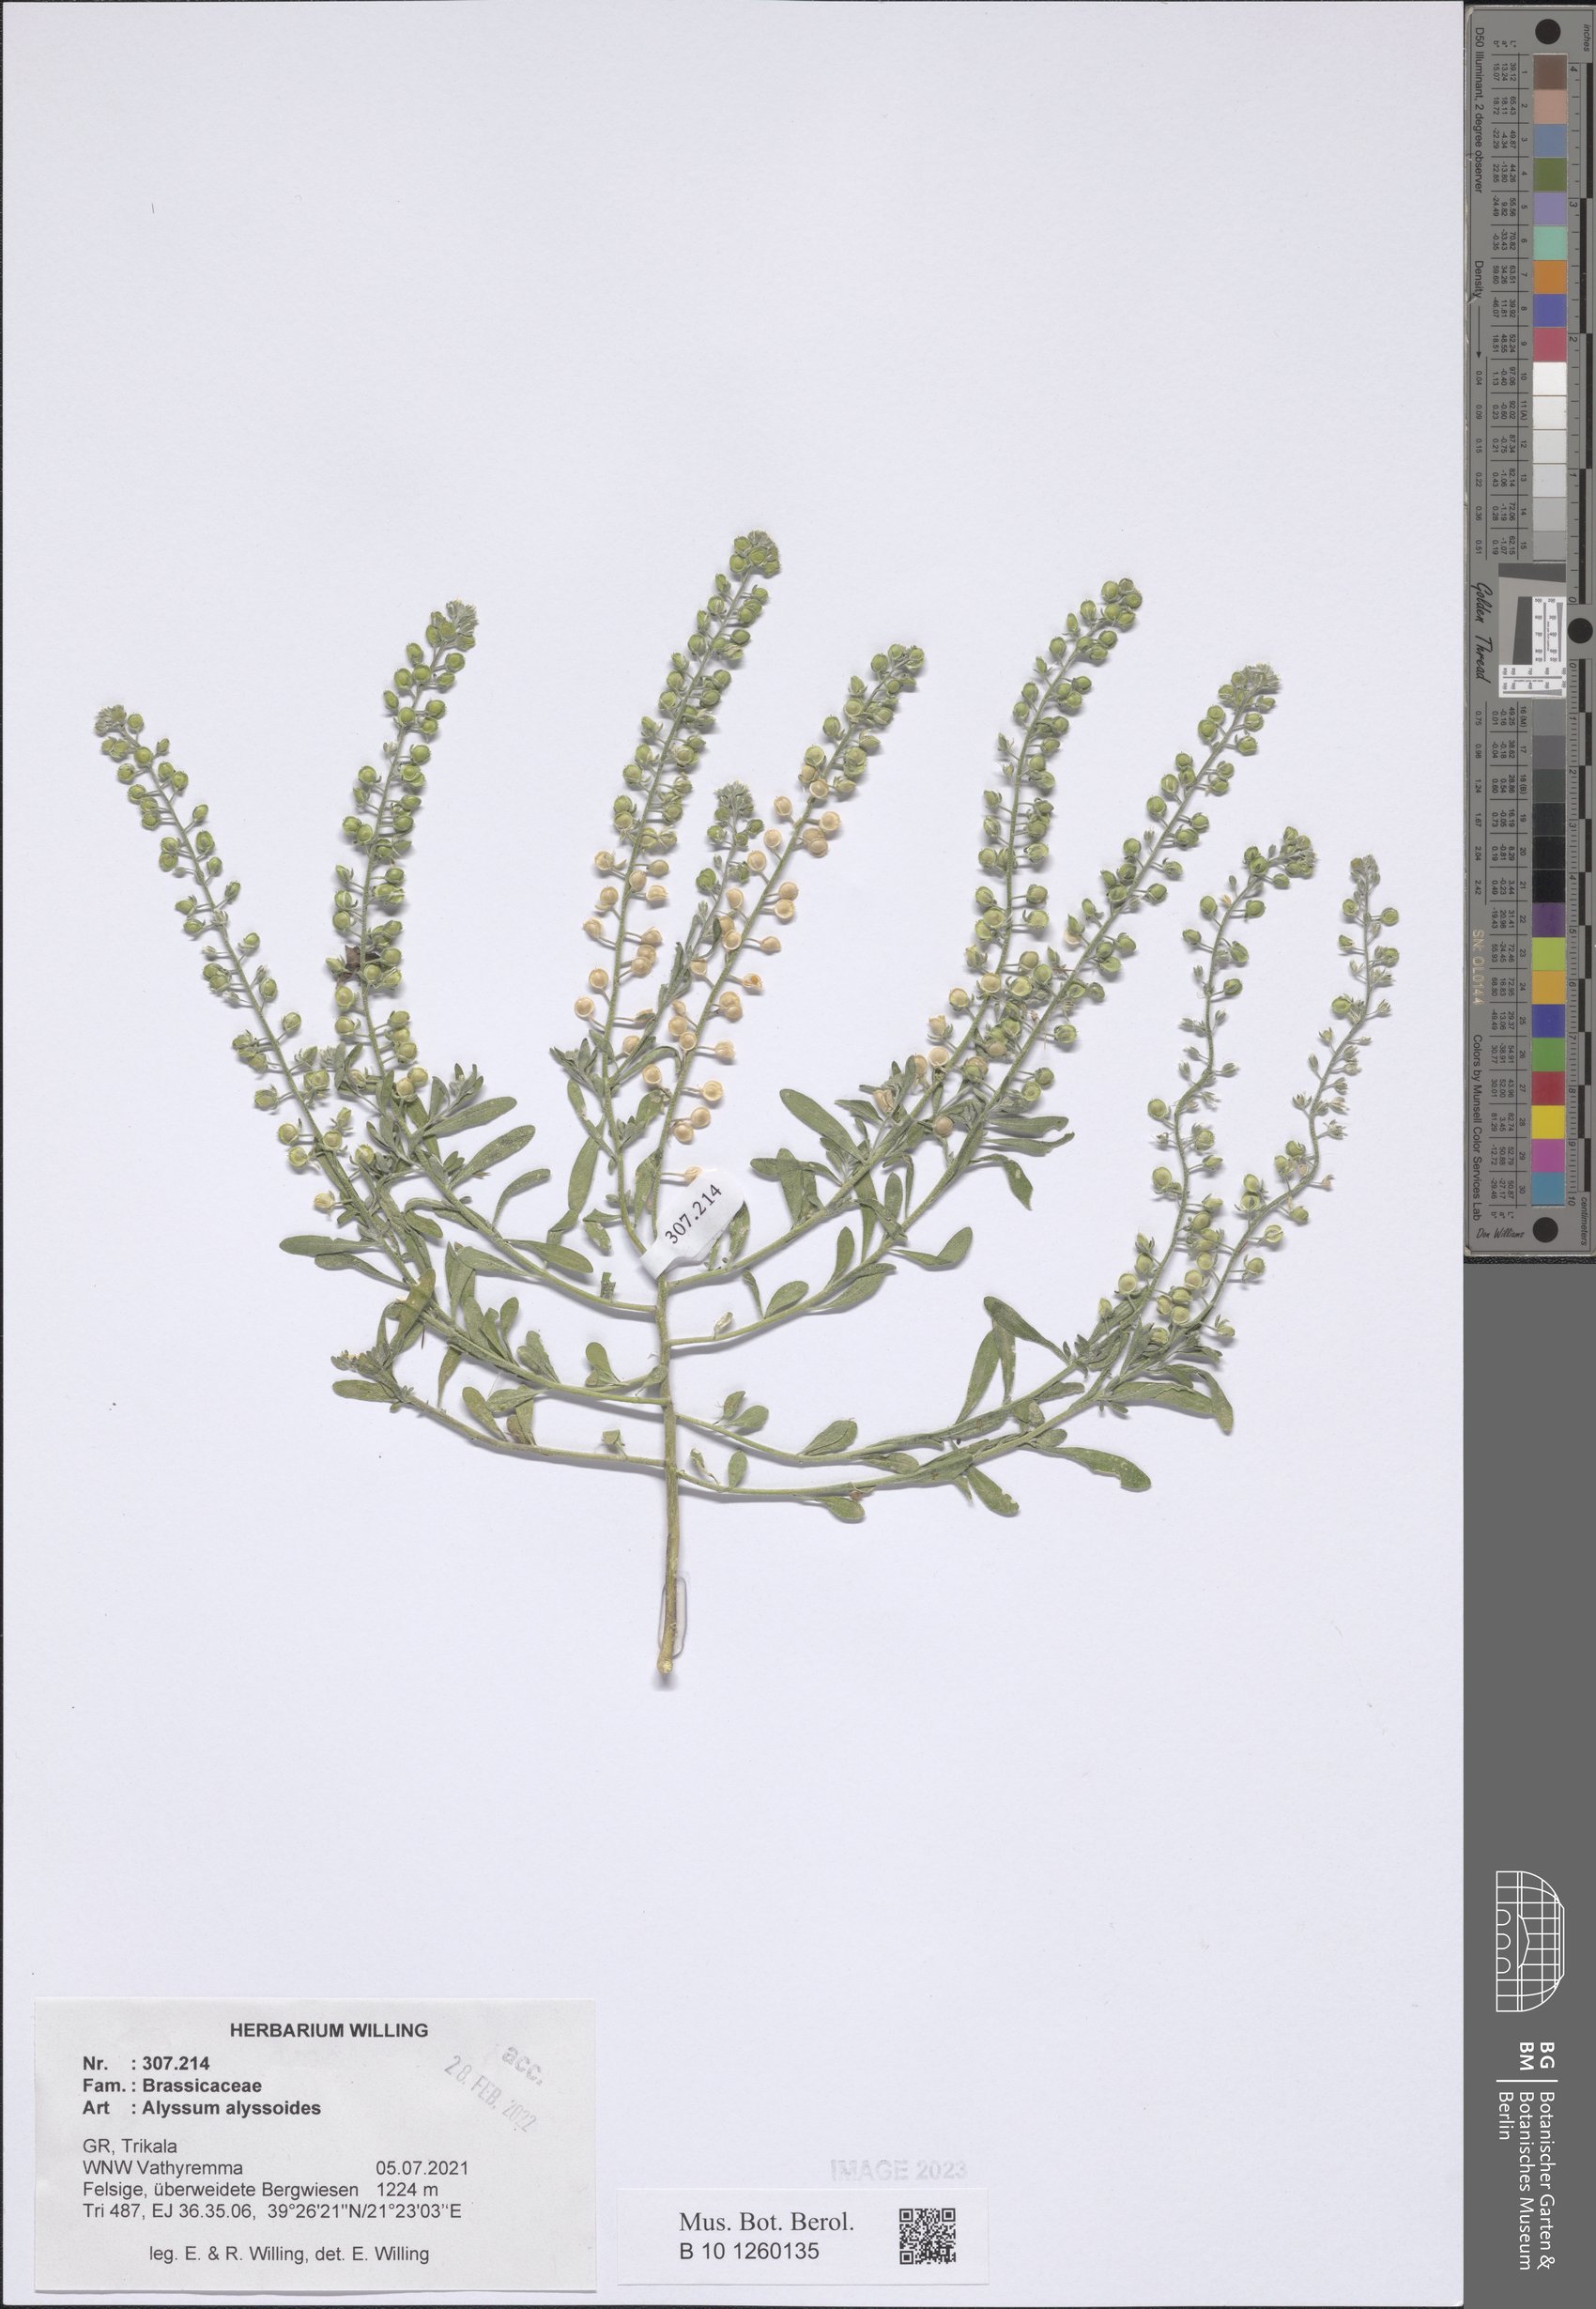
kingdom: Plantae
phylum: Tracheophyta
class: Magnoliopsida
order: Brassicales
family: Brassicaceae
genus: Alyssum
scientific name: Alyssum alyssoides
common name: Small alison
